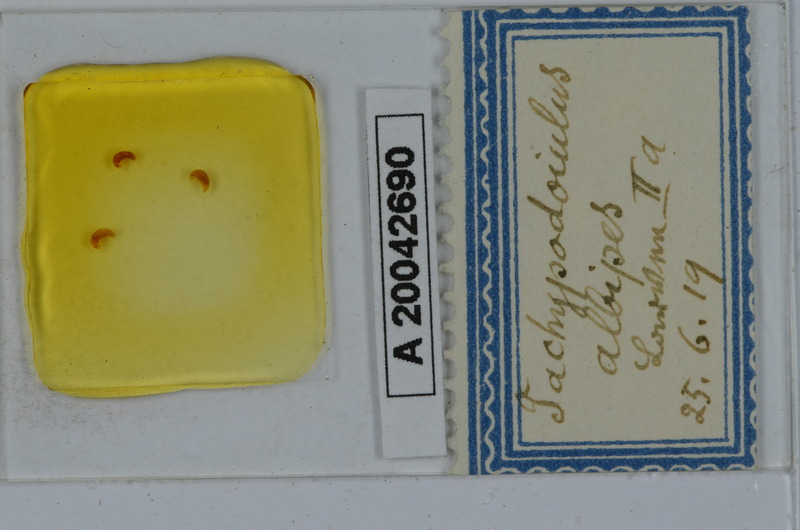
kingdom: Animalia
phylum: Arthropoda
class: Diplopoda
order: Julida
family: Julidae
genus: Tachypodoiulus
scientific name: Tachypodoiulus niger
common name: White-legged snake millipede
